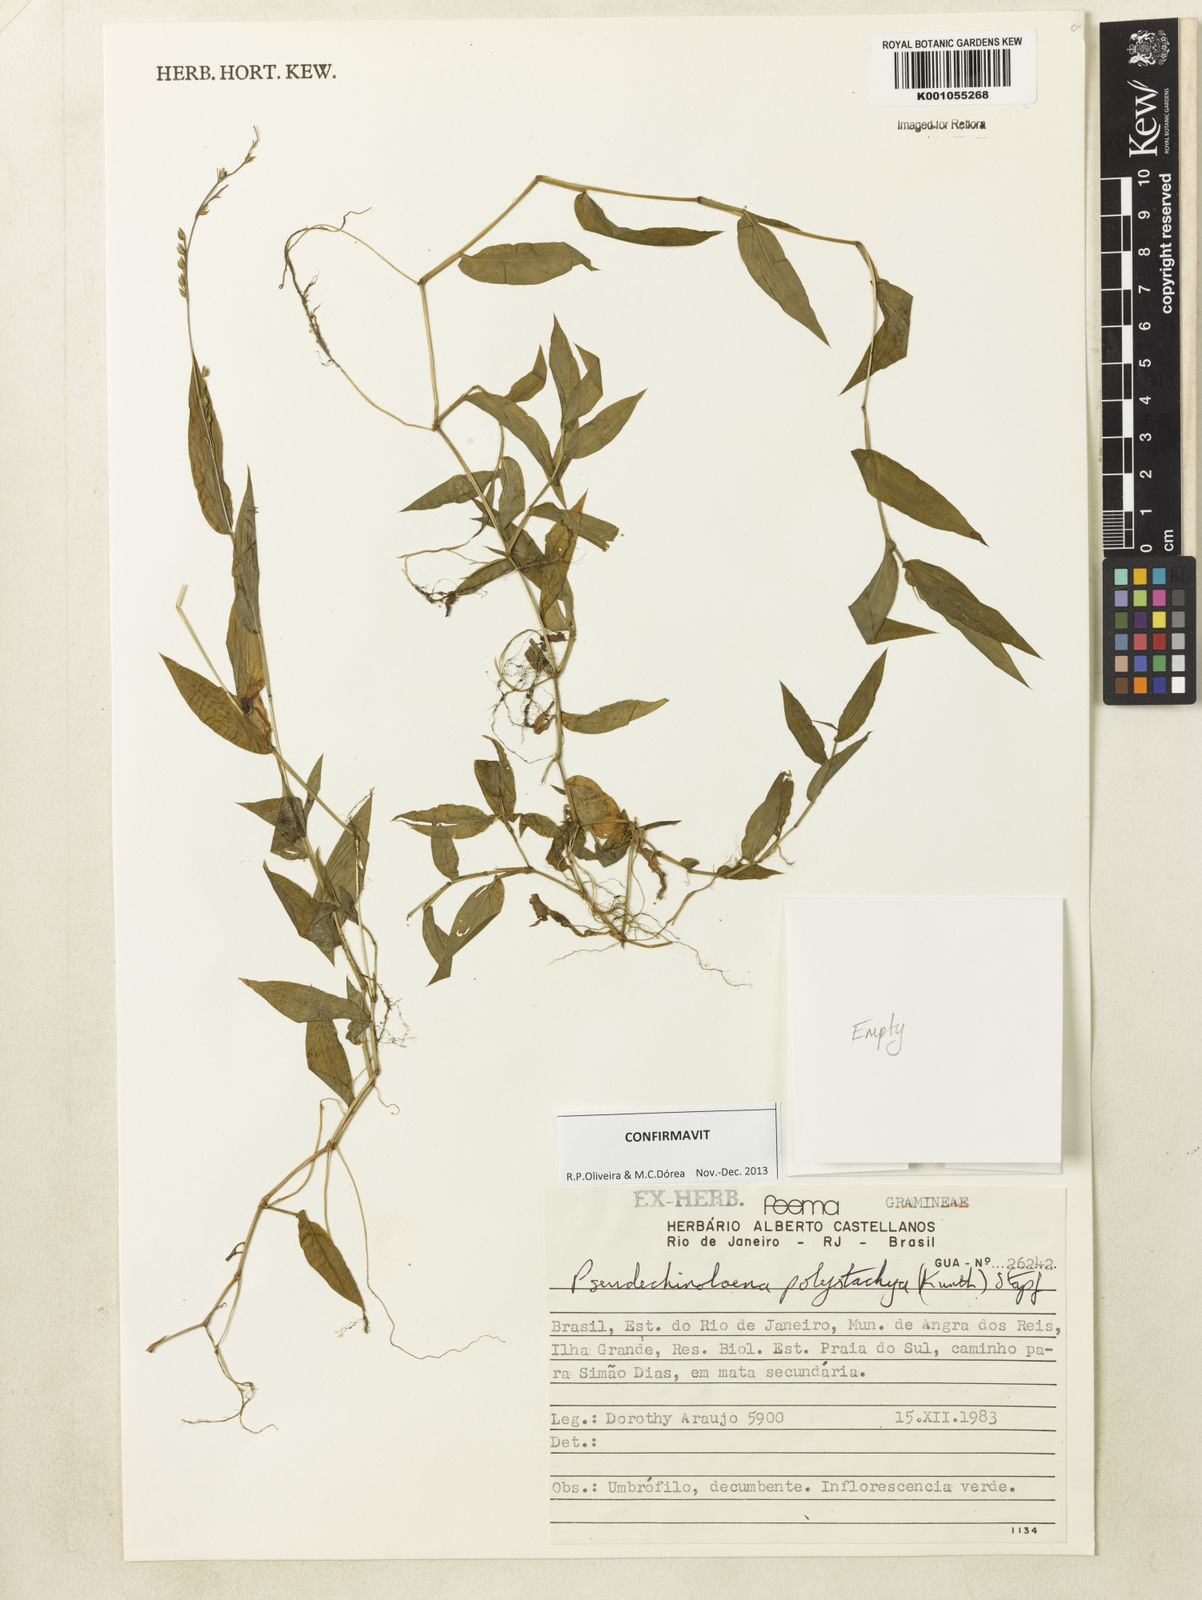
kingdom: Plantae
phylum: Tracheophyta
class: Liliopsida
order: Poales
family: Poaceae
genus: Pseudechinolaena
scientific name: Pseudechinolaena polystachya
